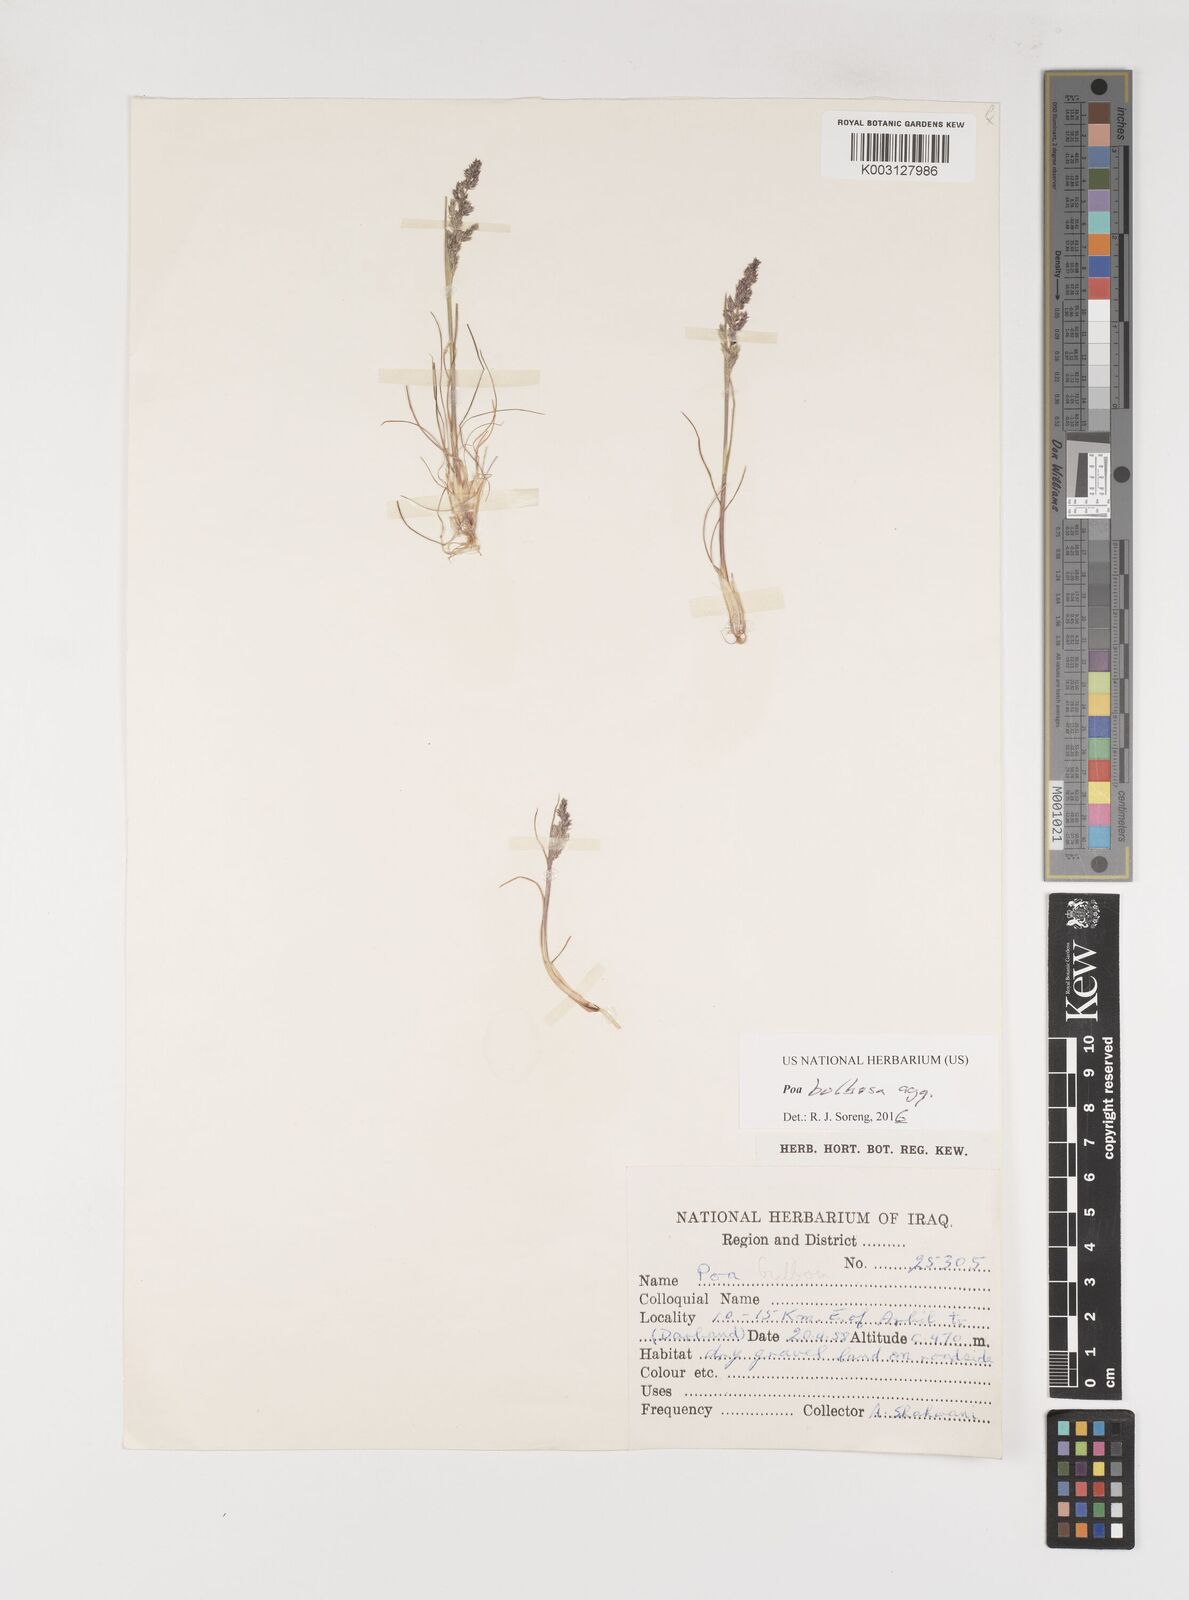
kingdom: Plantae
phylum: Tracheophyta
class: Liliopsida
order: Poales
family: Poaceae
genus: Poa
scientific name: Poa bulbosa
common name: Bulbous bluegrass
